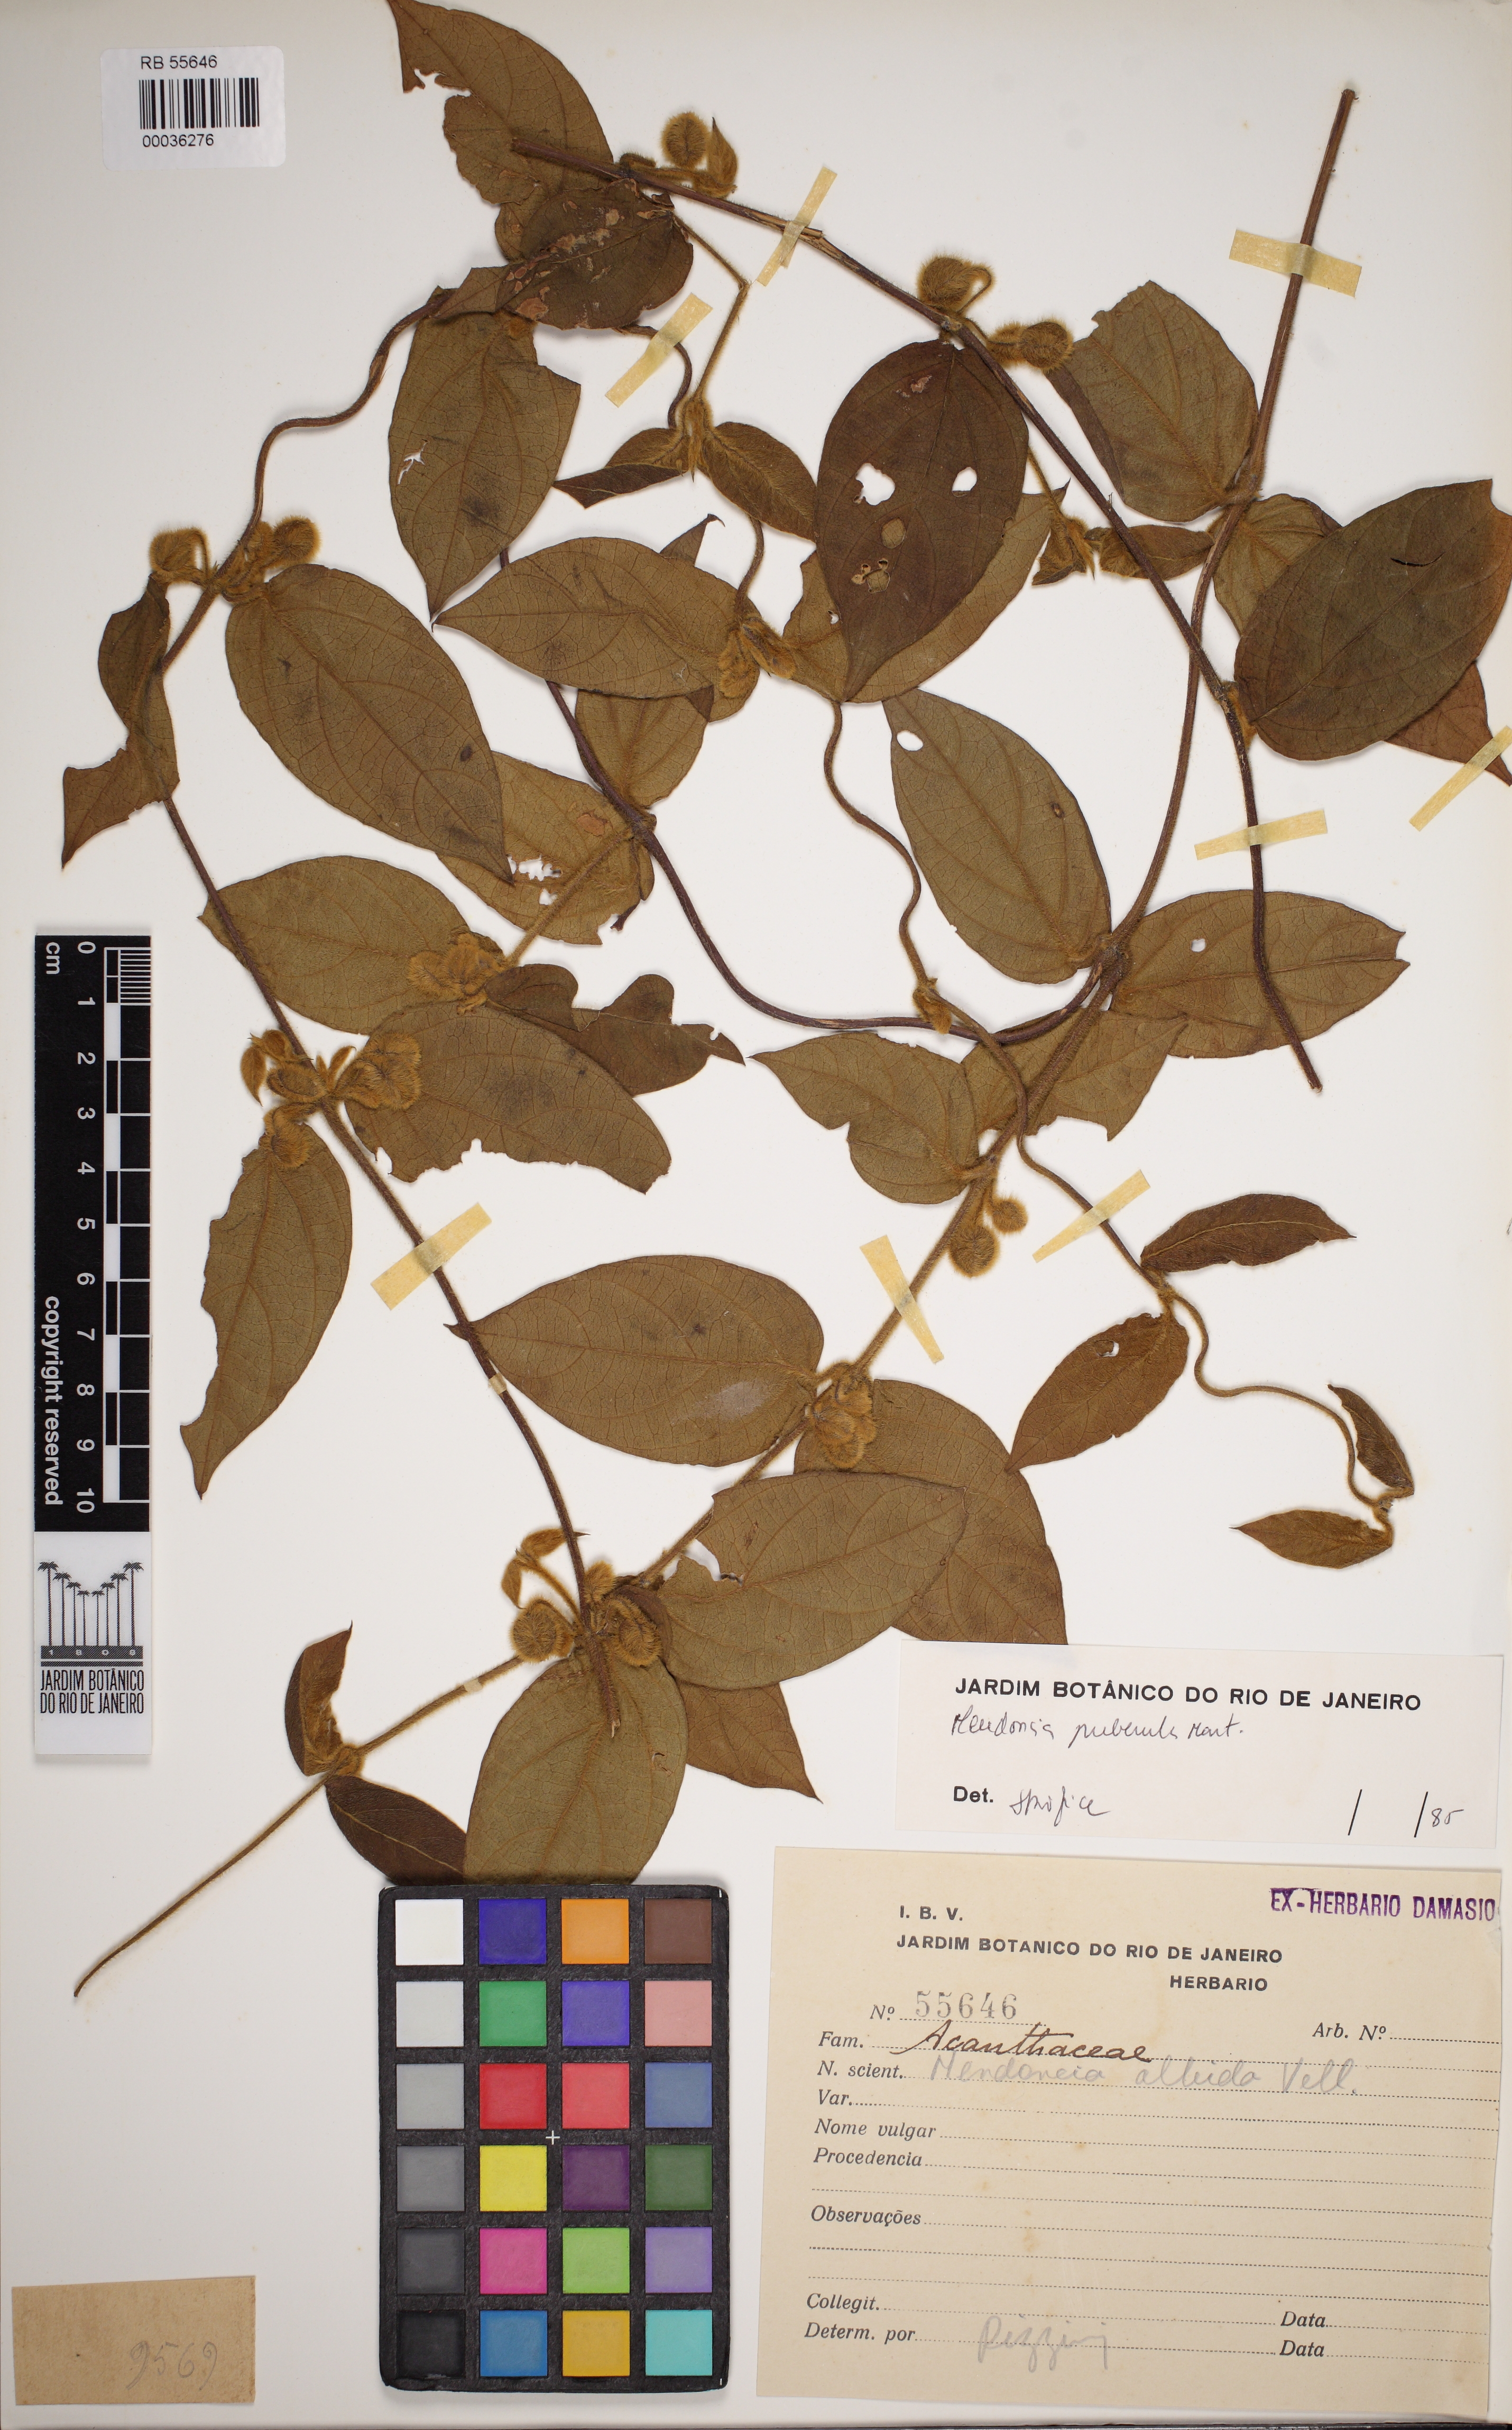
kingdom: Plantae
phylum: Tracheophyta
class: Magnoliopsida
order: Lamiales
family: Acanthaceae
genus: Mendoncia
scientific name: Mendoncia puberula
